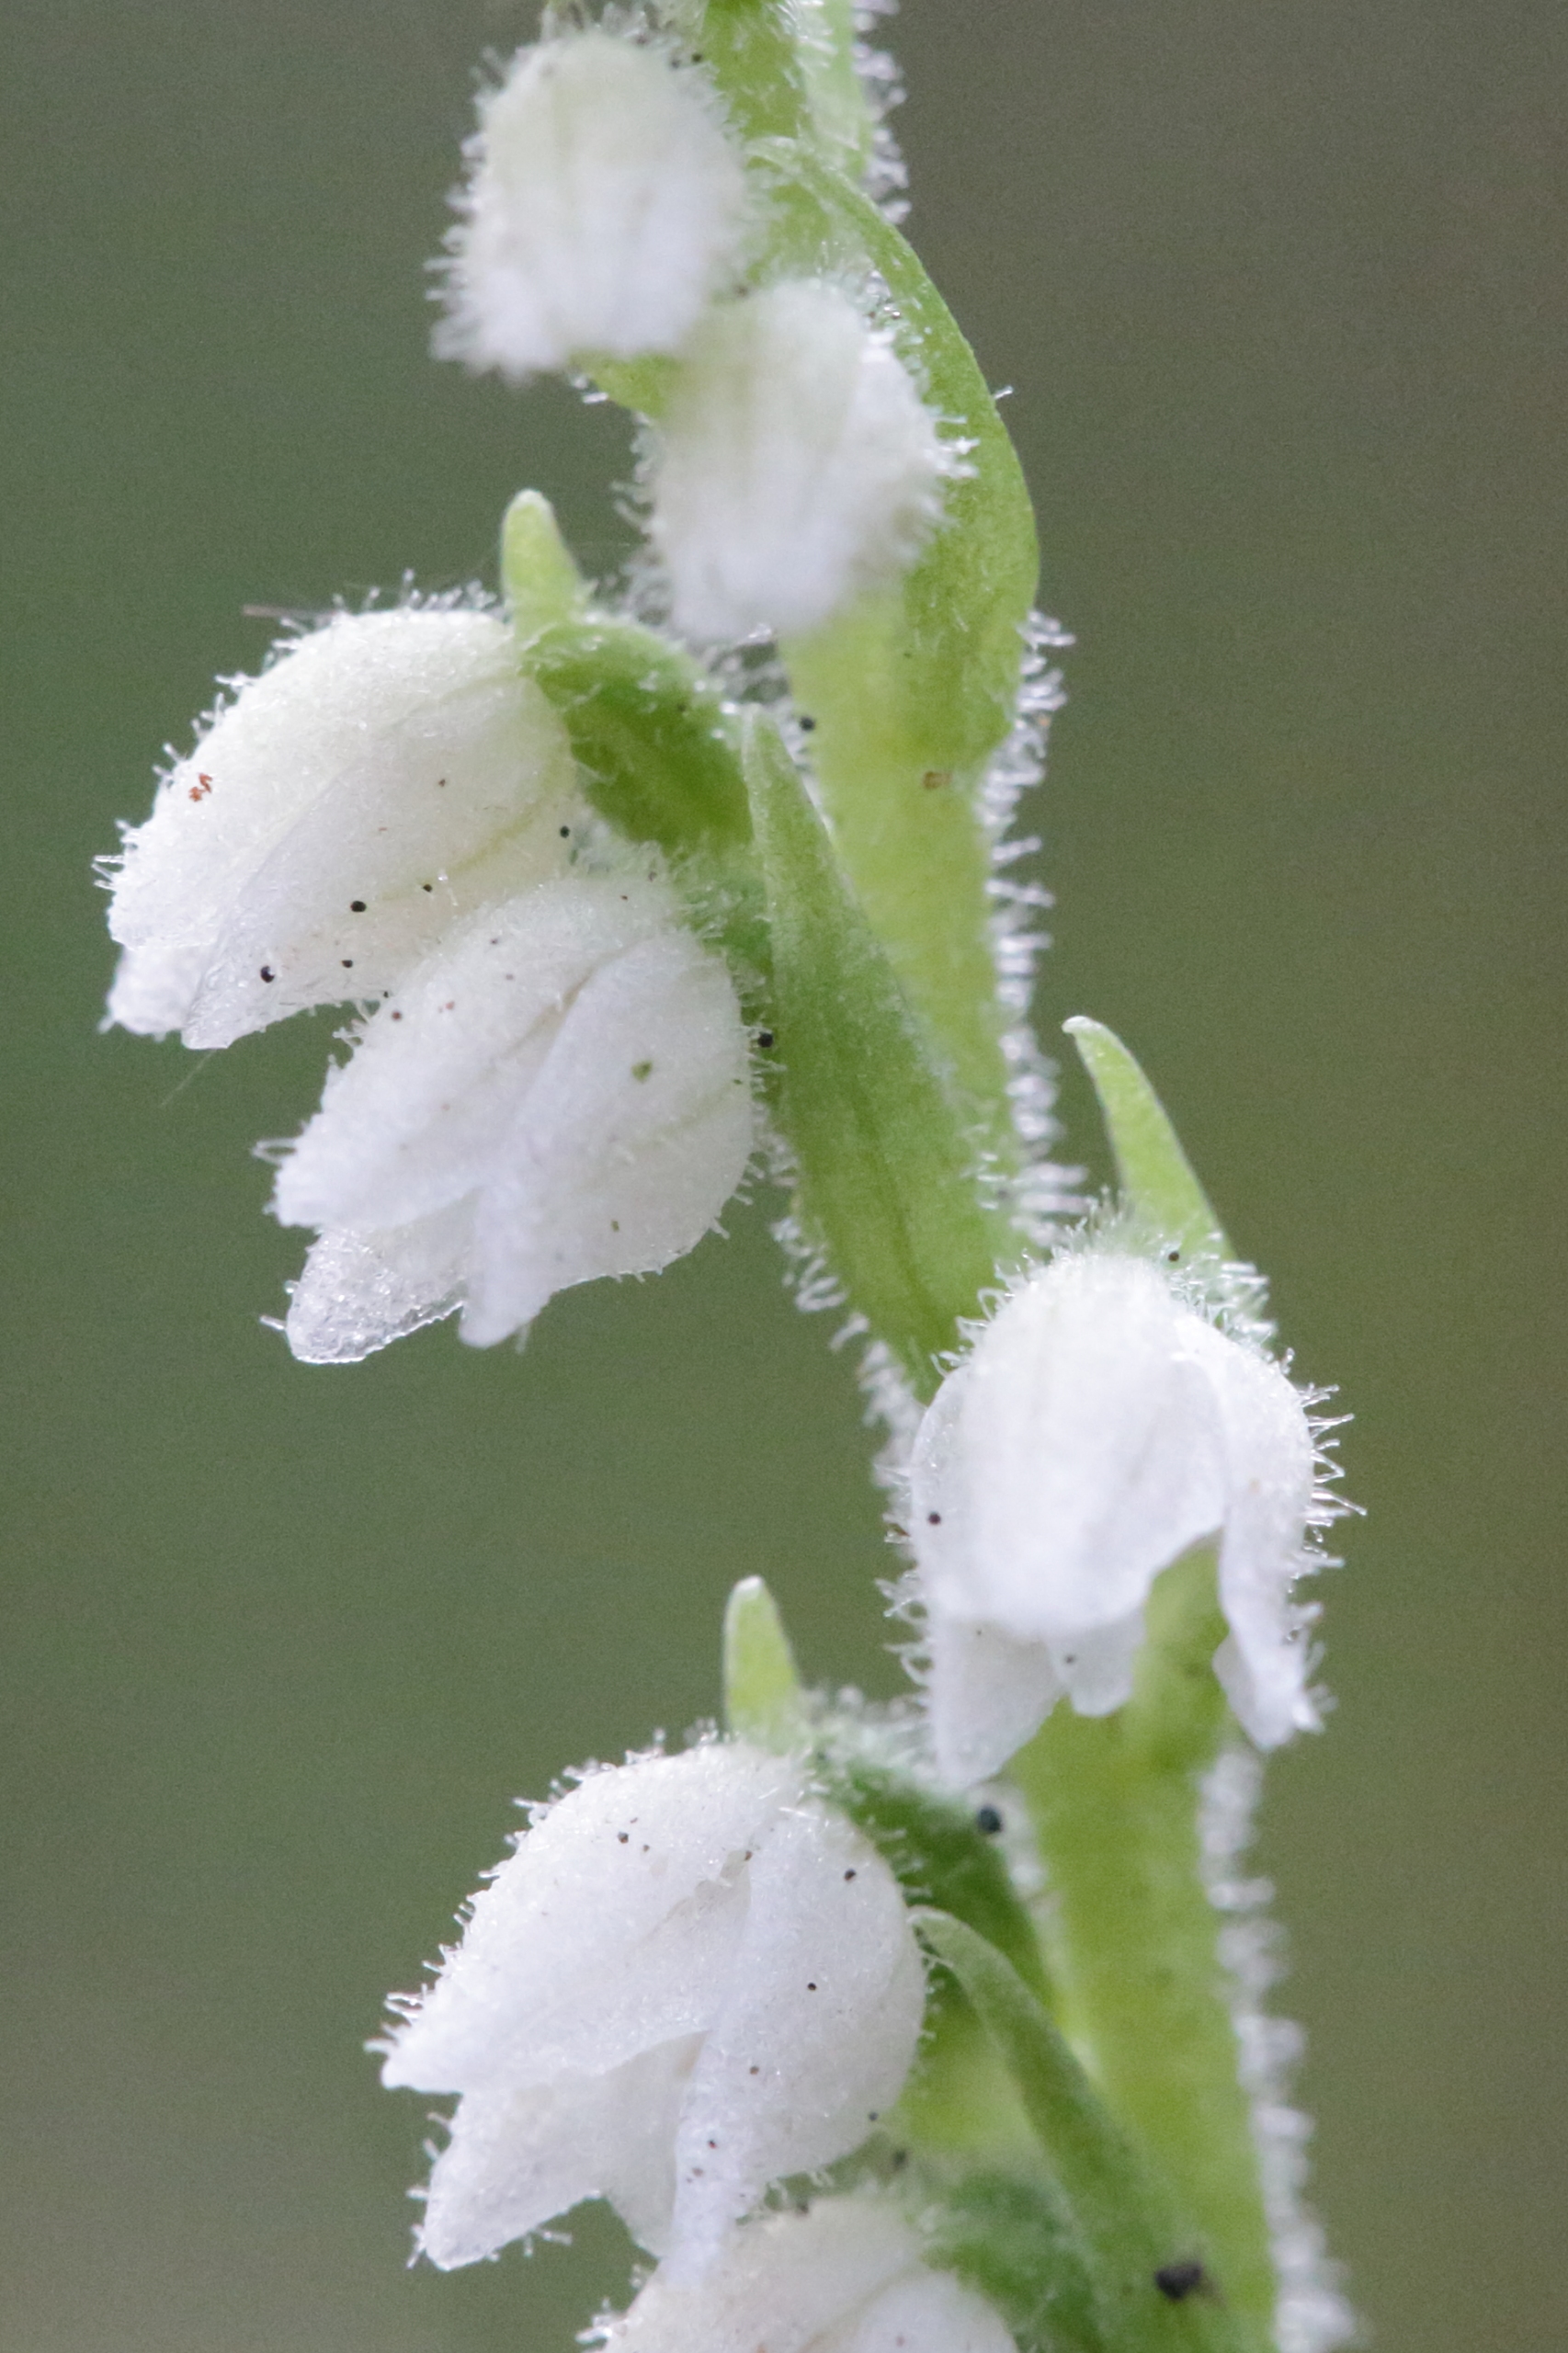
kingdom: Plantae
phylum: Tracheophyta
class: Liliopsida
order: Asparagales
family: Orchidaceae
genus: Goodyera
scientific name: Goodyera repens
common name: Knærod
